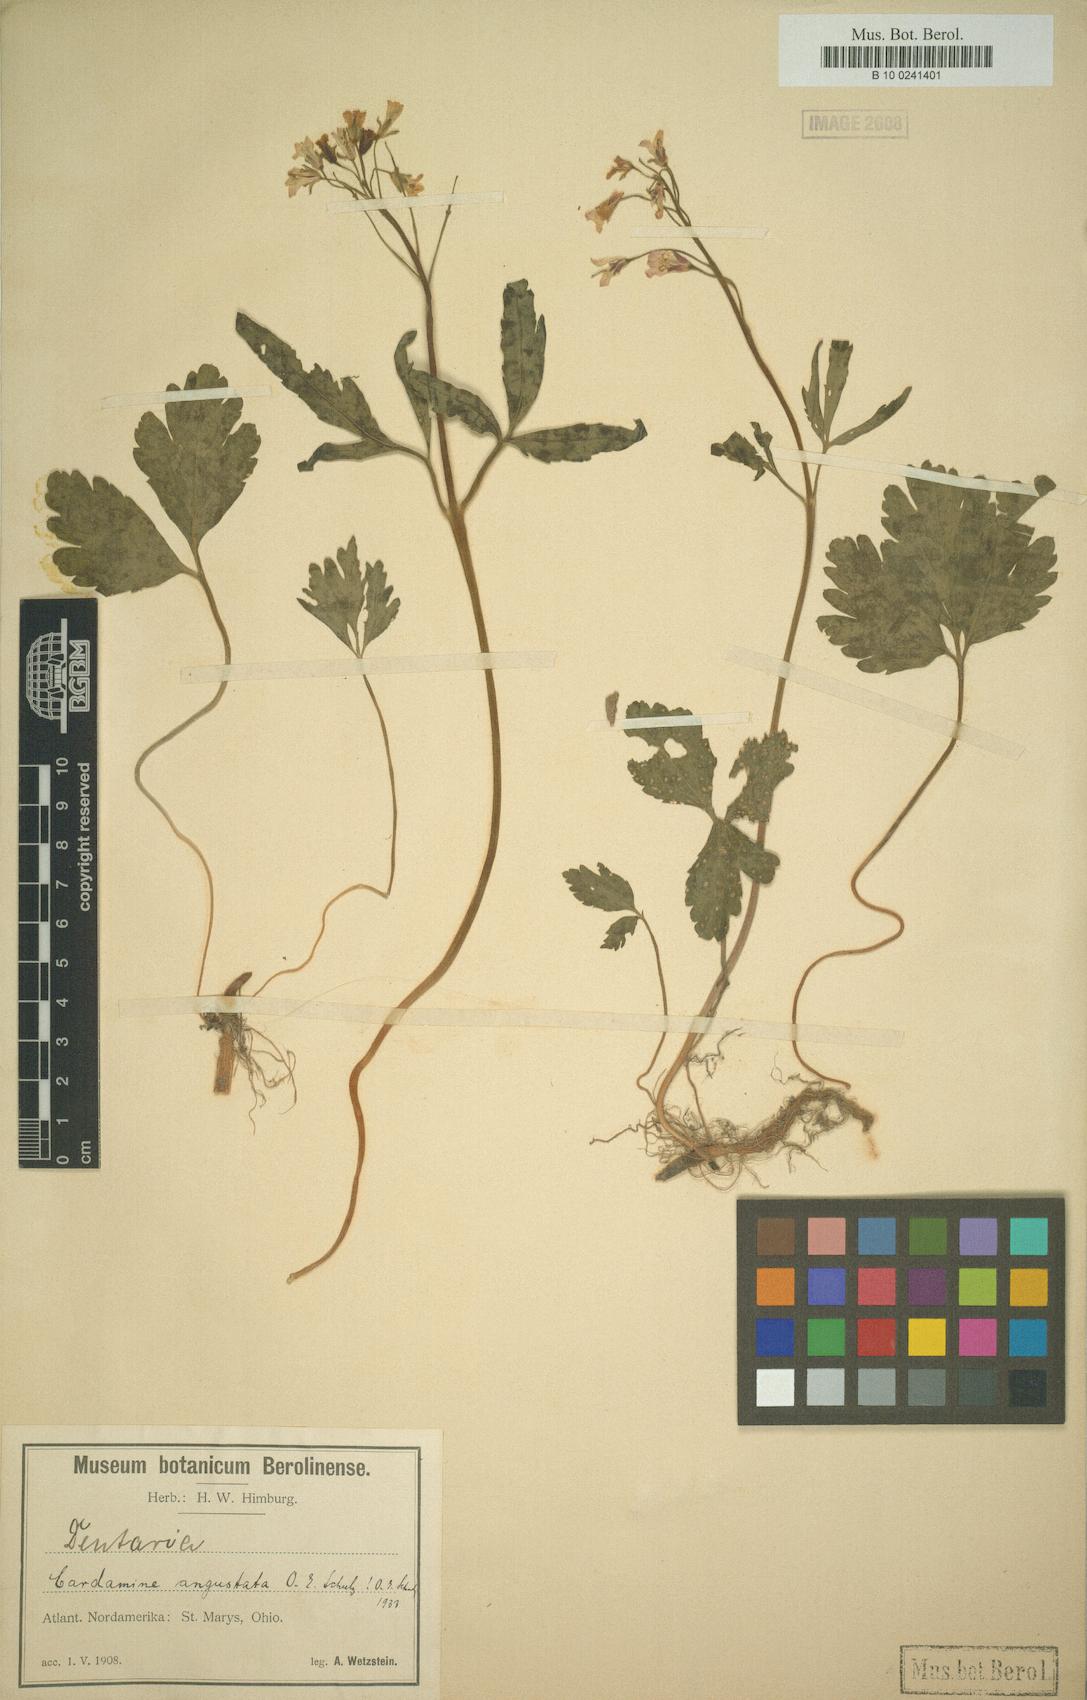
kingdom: Plantae
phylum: Tracheophyta
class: Magnoliopsida
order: Brassicales
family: Brassicaceae
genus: Cardamine
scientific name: Cardamine angustata
